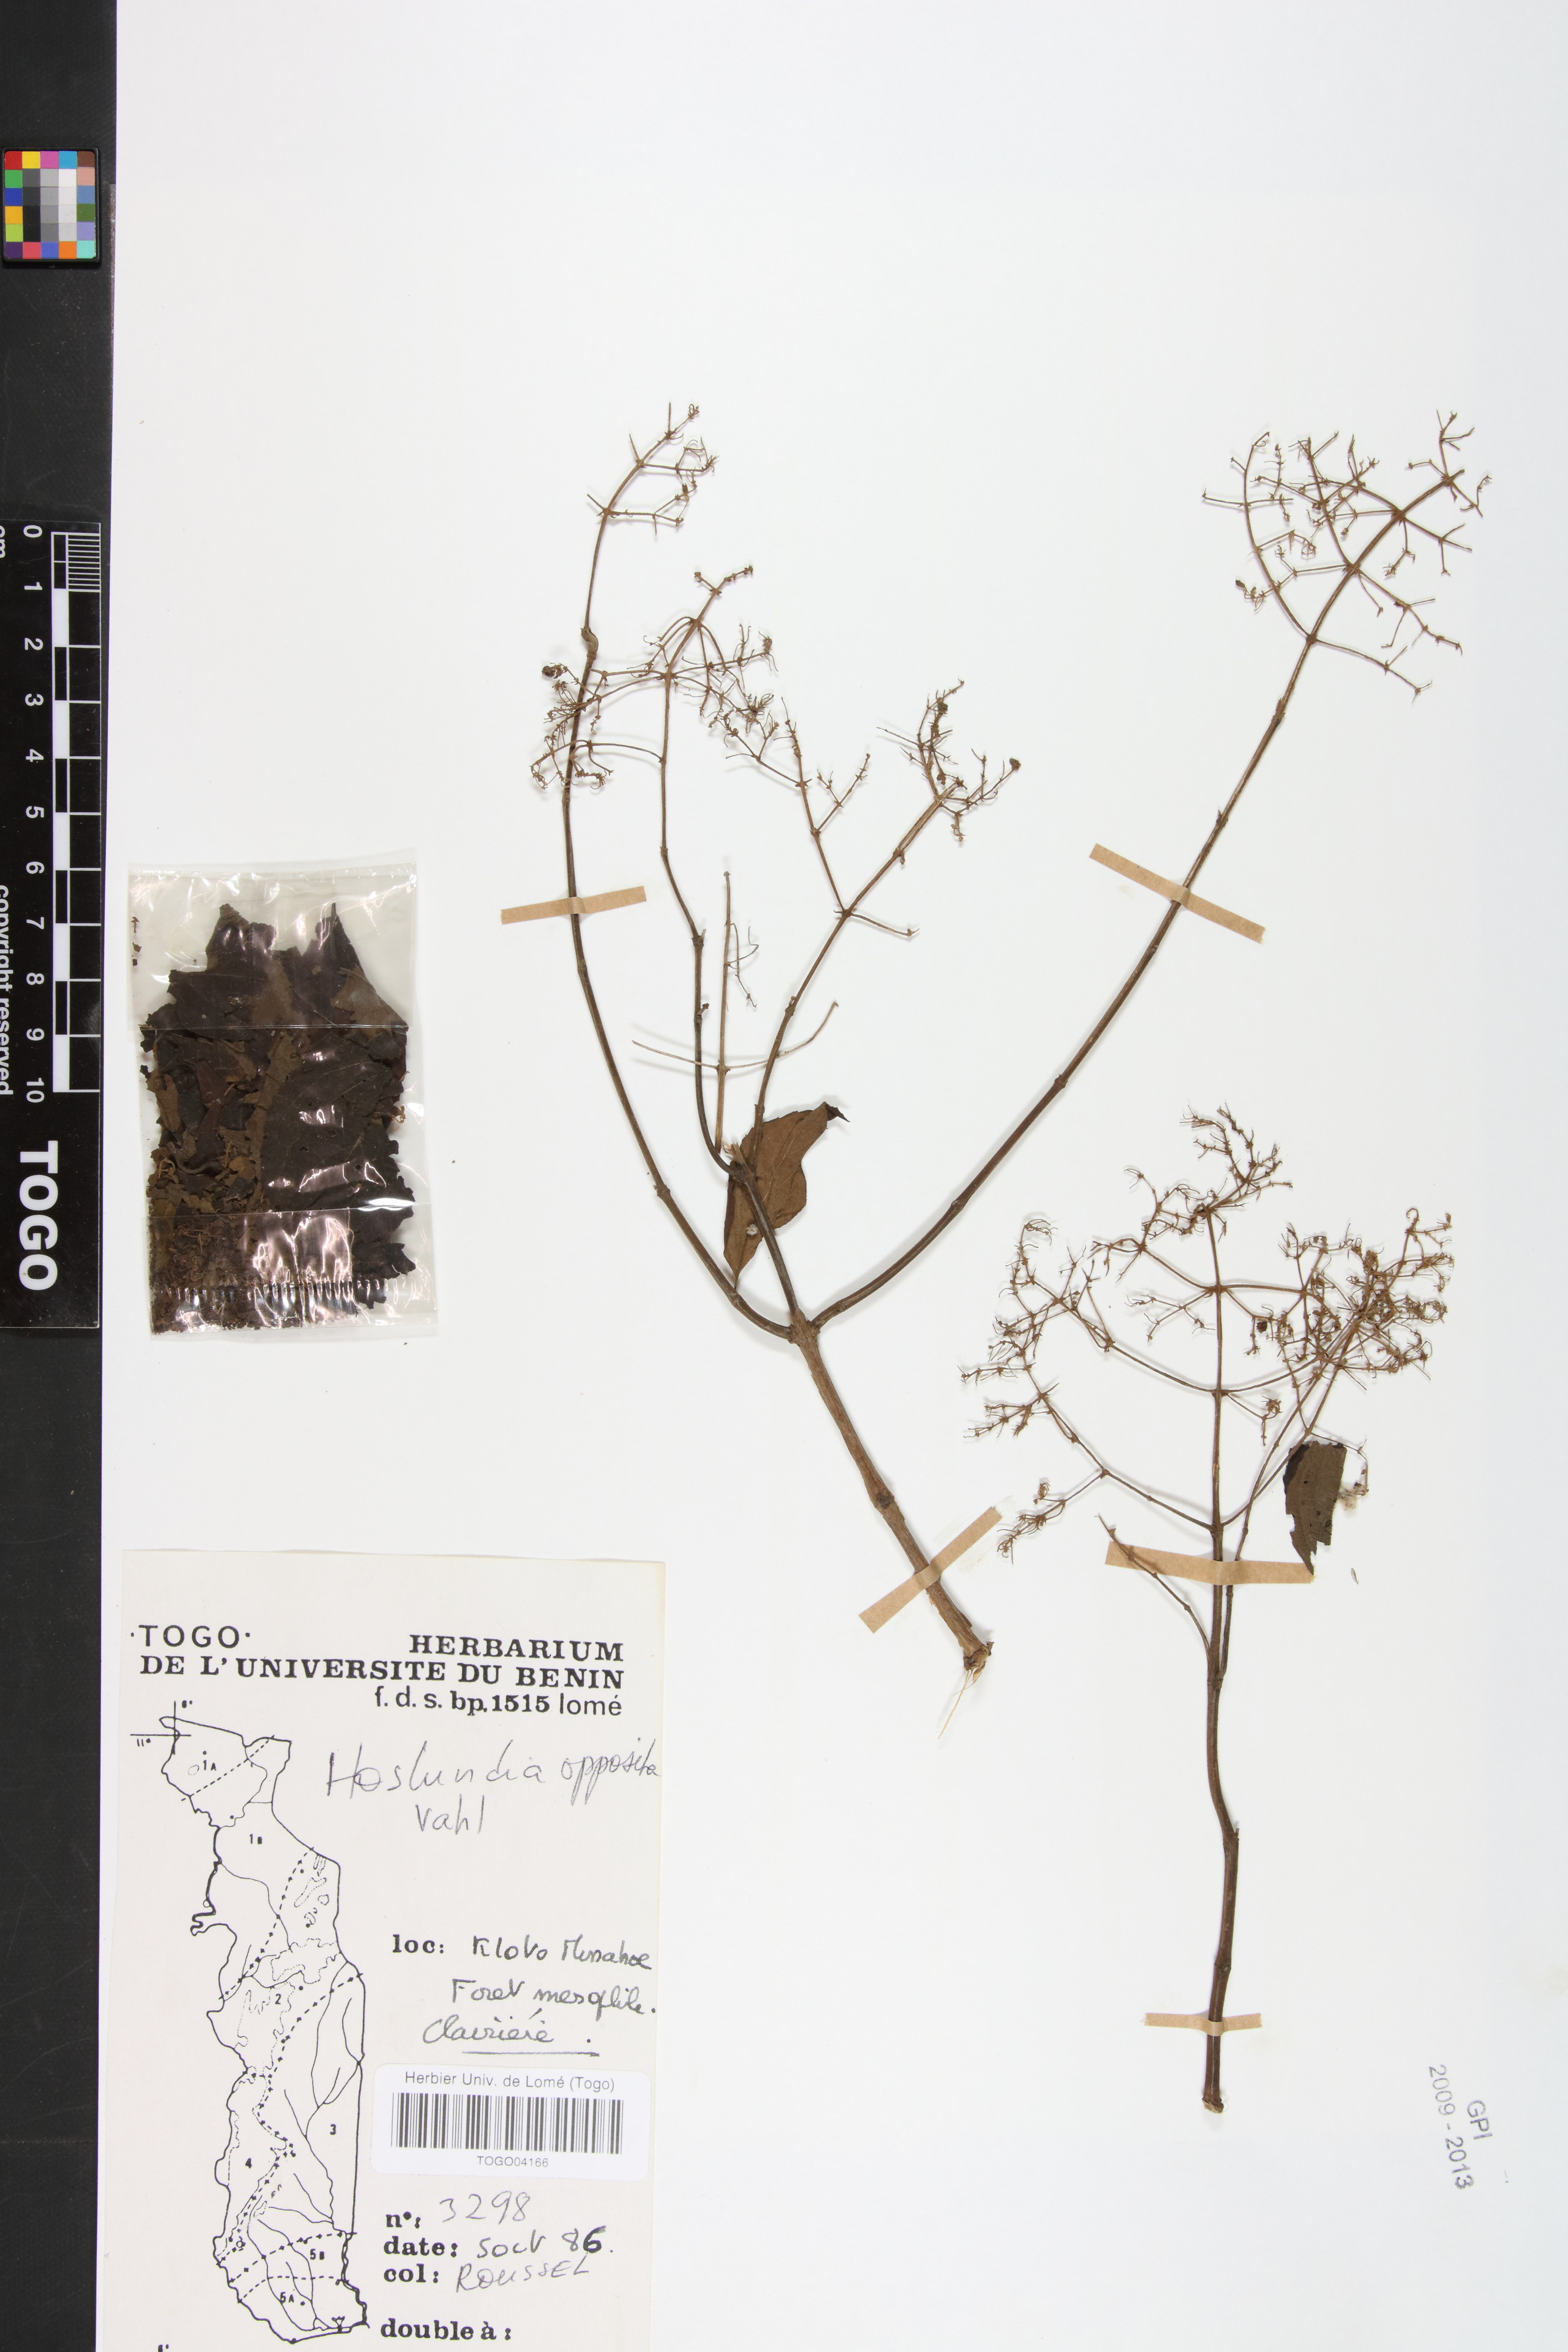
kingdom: Plantae
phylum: Tracheophyta
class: Magnoliopsida
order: Lamiales
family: Lamiaceae
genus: Hoslundia
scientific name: Hoslundia opposita
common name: Kamyuye
